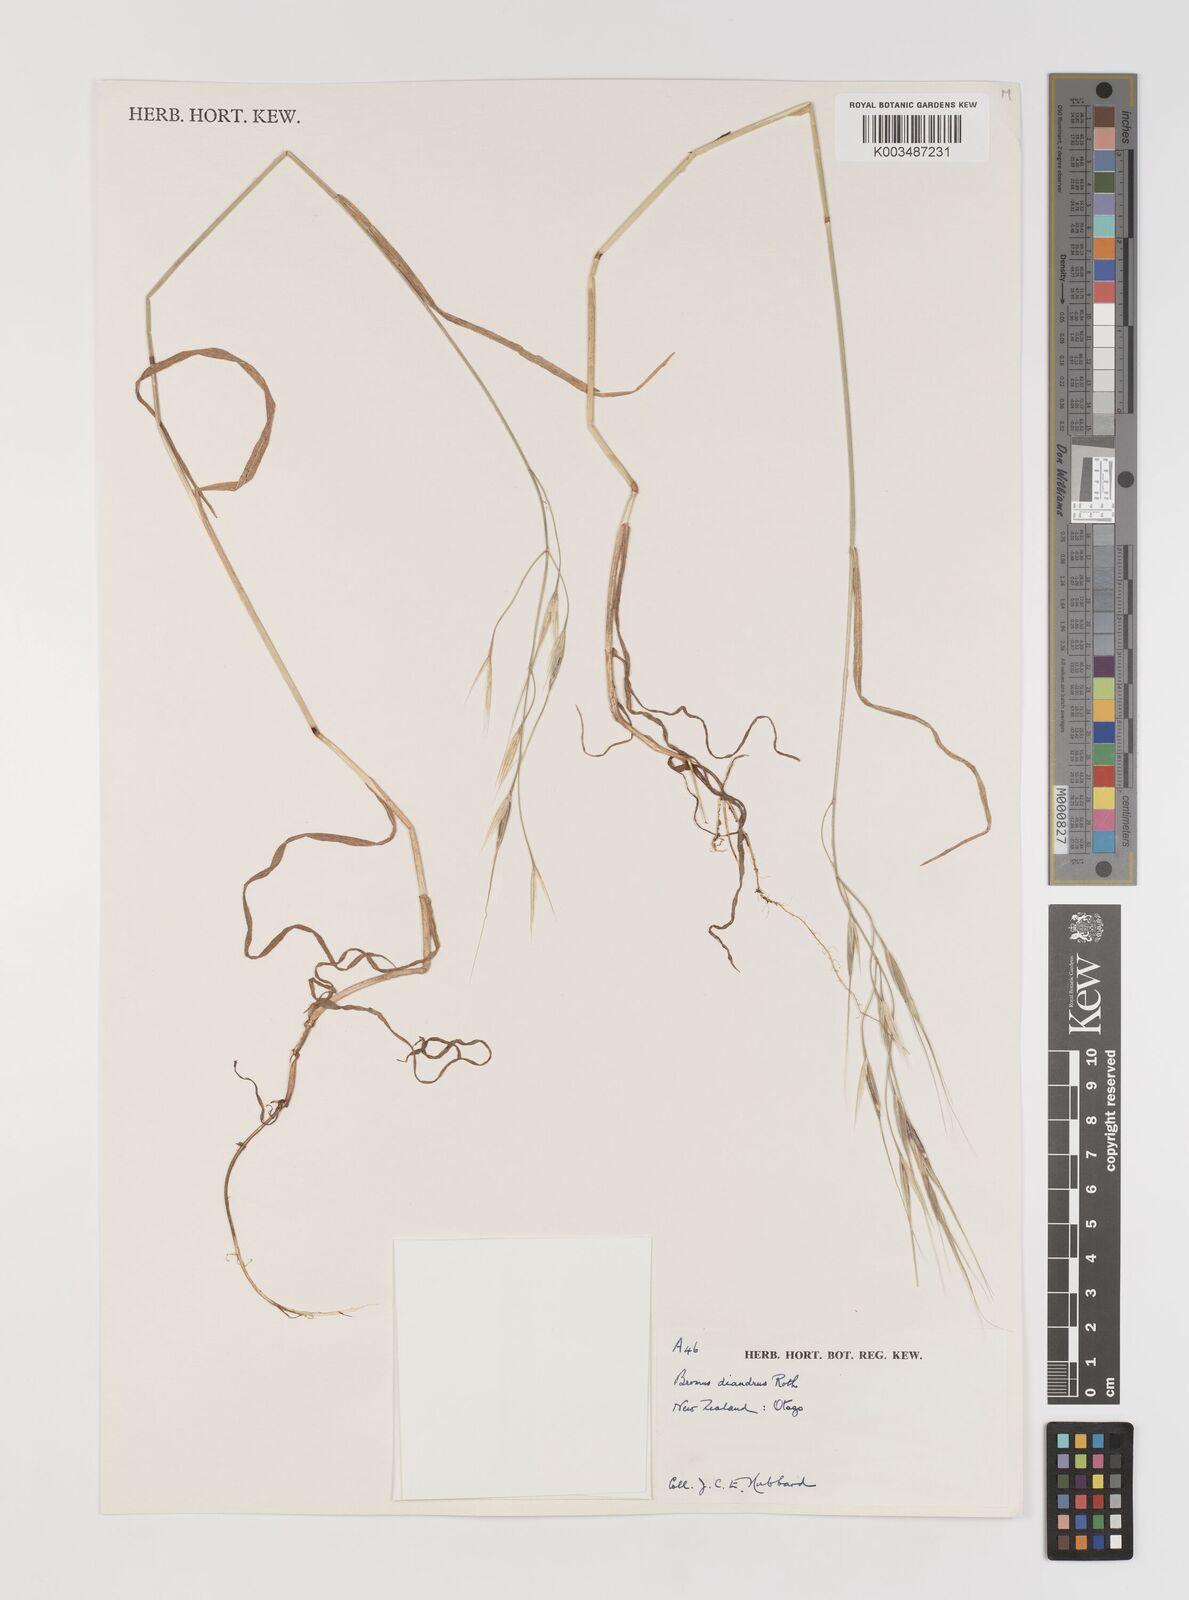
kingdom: Plantae
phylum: Tracheophyta
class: Liliopsida
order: Poales
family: Poaceae
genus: Bromus
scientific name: Bromus diandrus
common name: Ripgut brome
